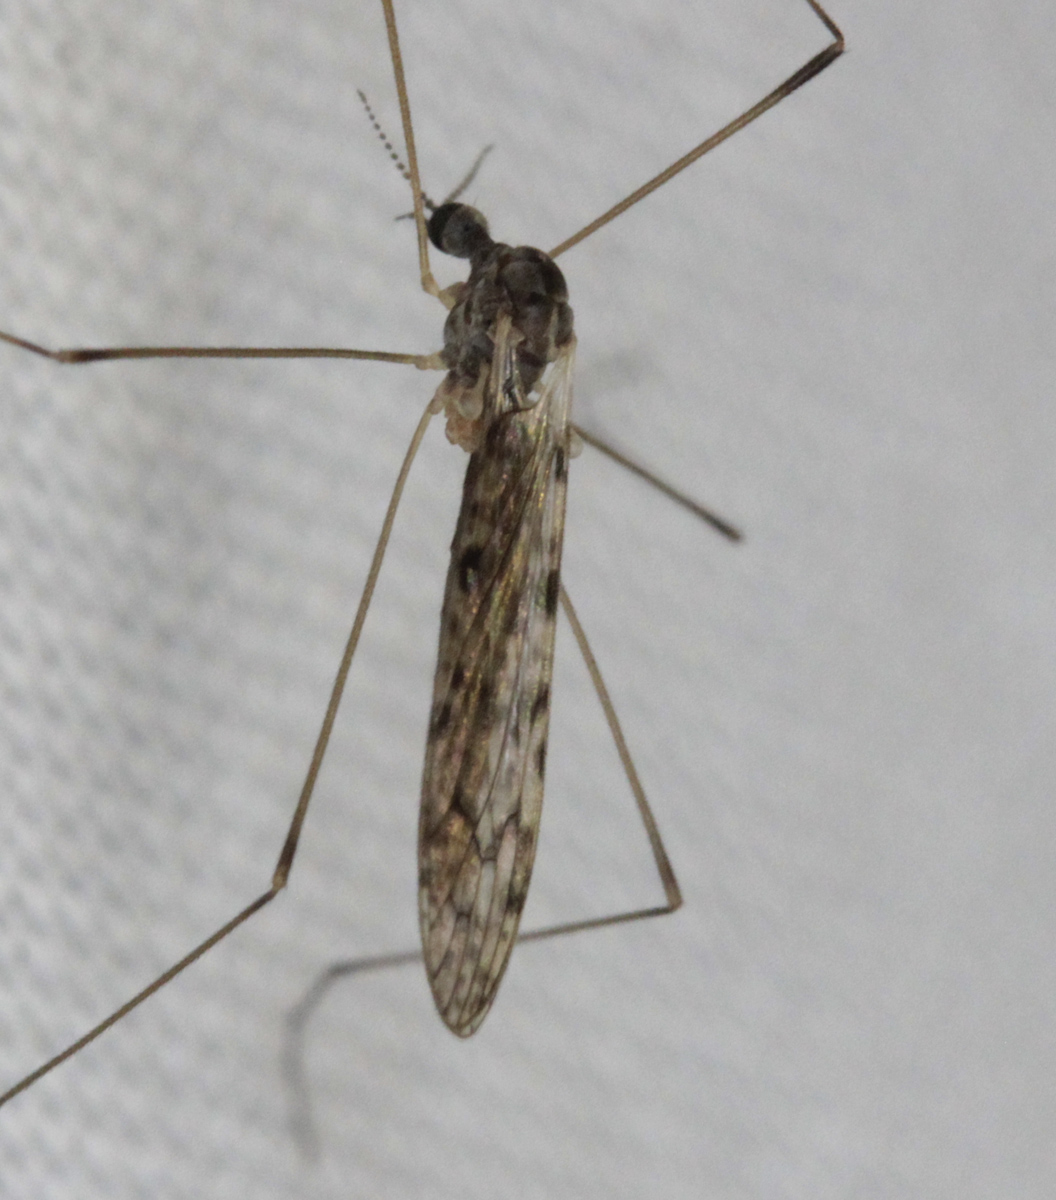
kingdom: Animalia
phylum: Arthropoda
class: Insecta
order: Diptera
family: Limoniidae
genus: Rhipidia
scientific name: Rhipidia maculata
